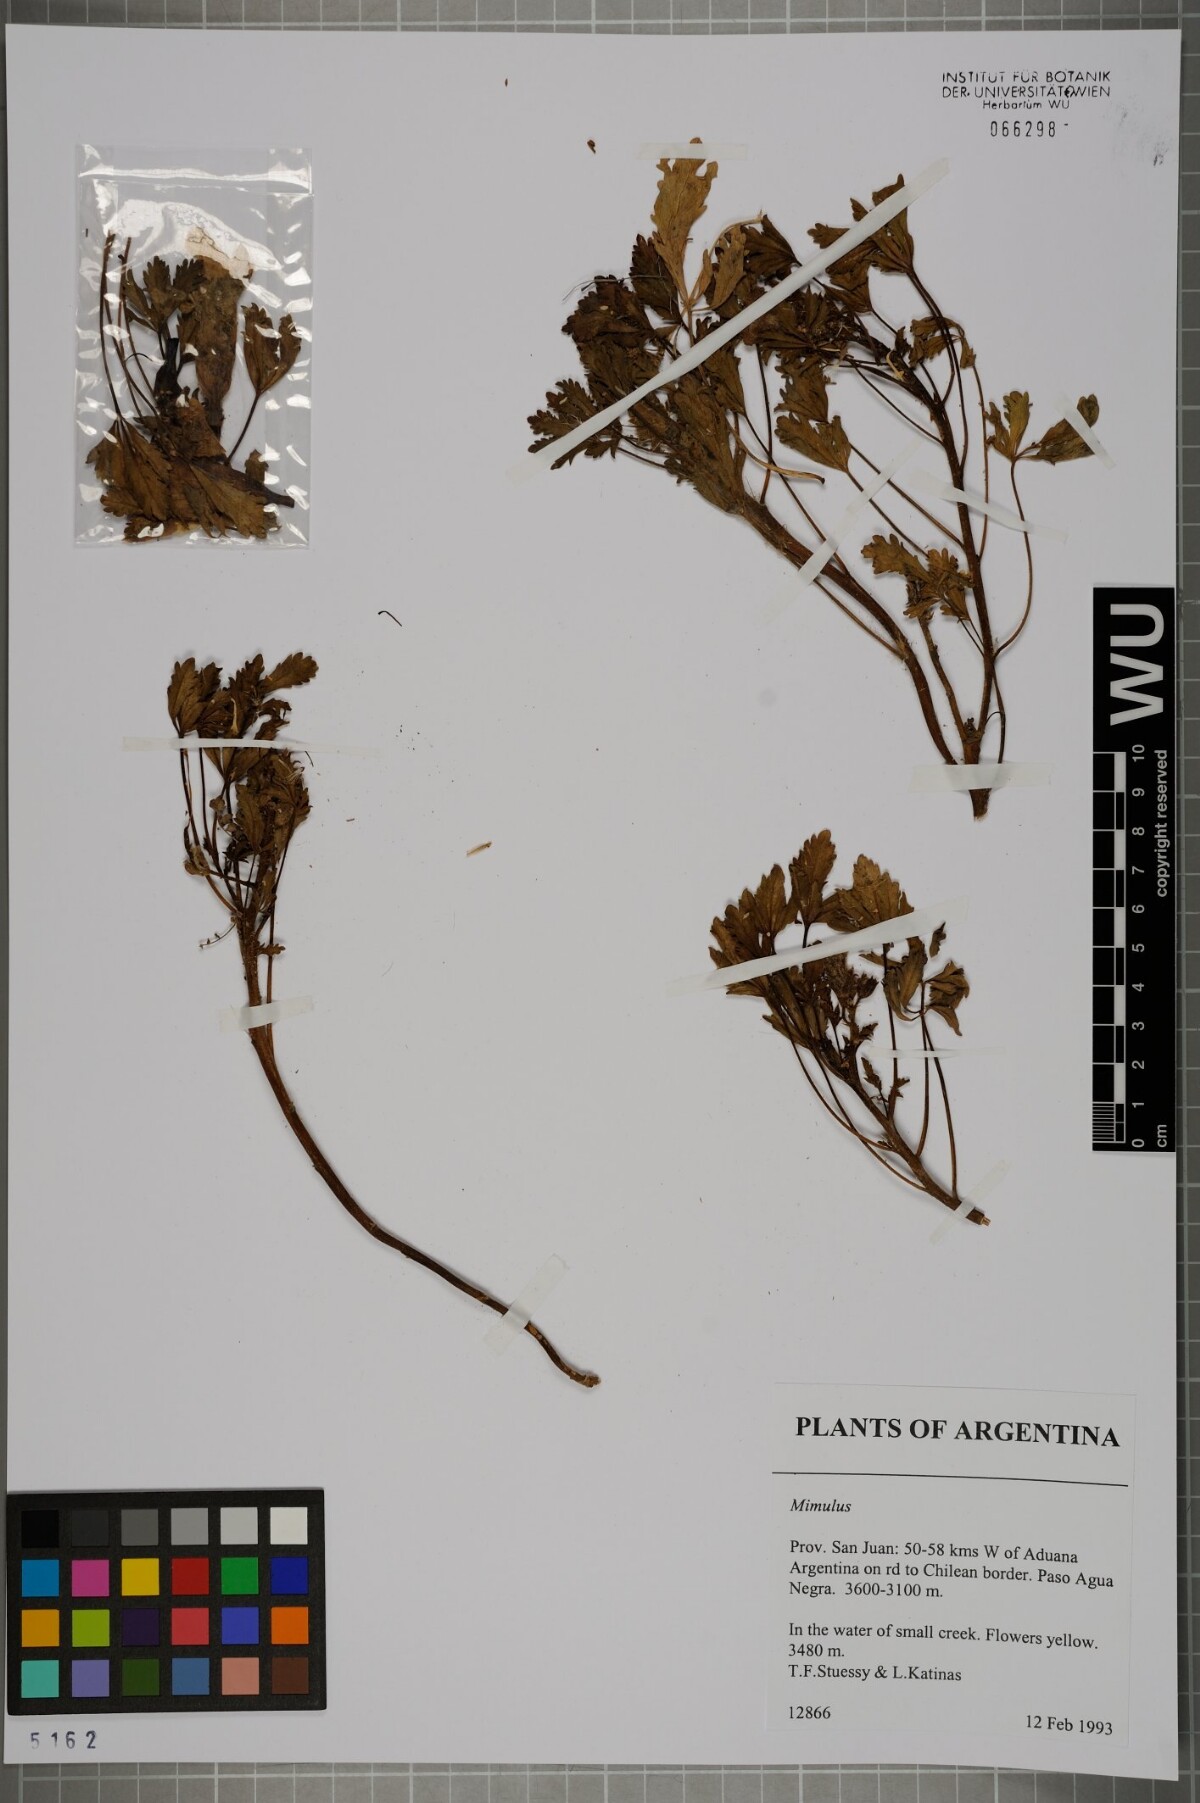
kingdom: Plantae
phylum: Tracheophyta
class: Magnoliopsida
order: Lamiales
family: Phrymaceae
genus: Mimulus
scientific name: Mimulus
